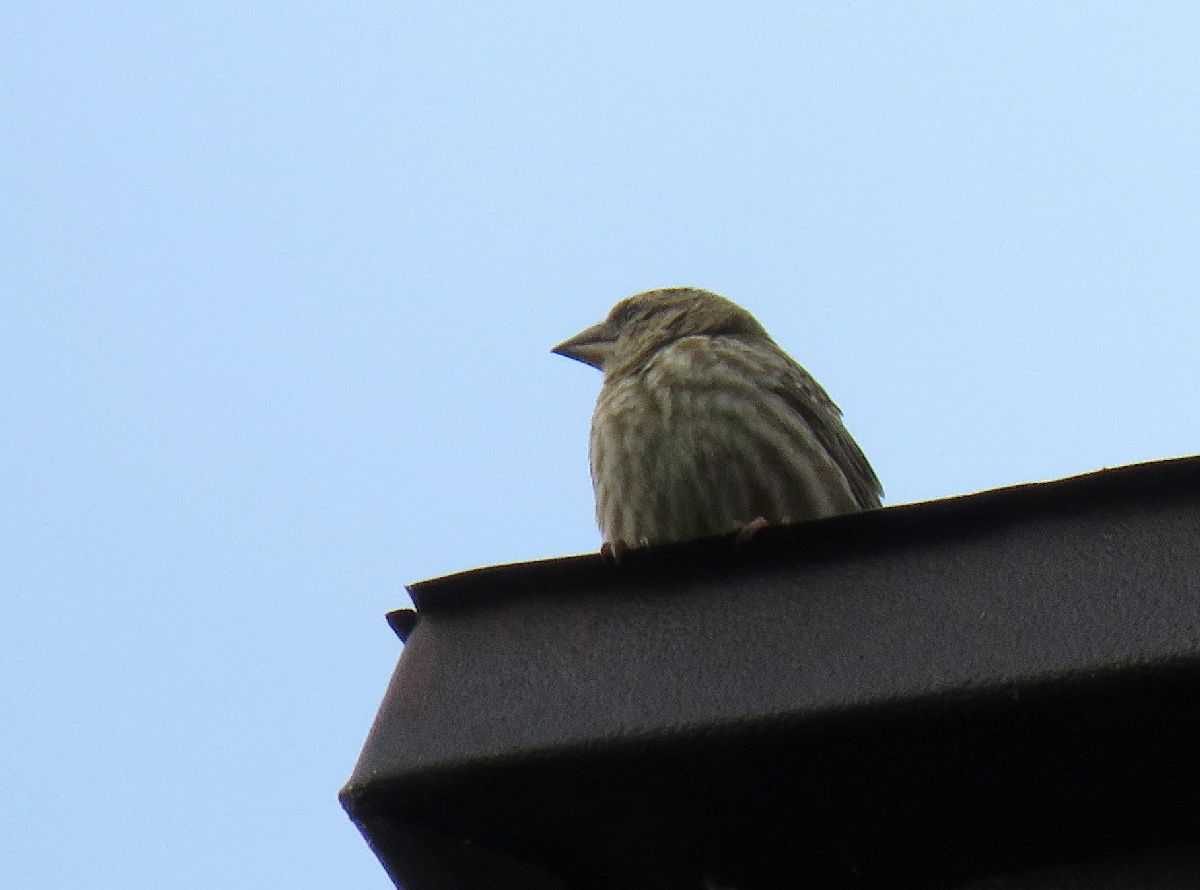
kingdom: Animalia
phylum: Chordata
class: Aves
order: Passeriformes
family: Passeridae
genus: Petronia
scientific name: Petronia petronia
